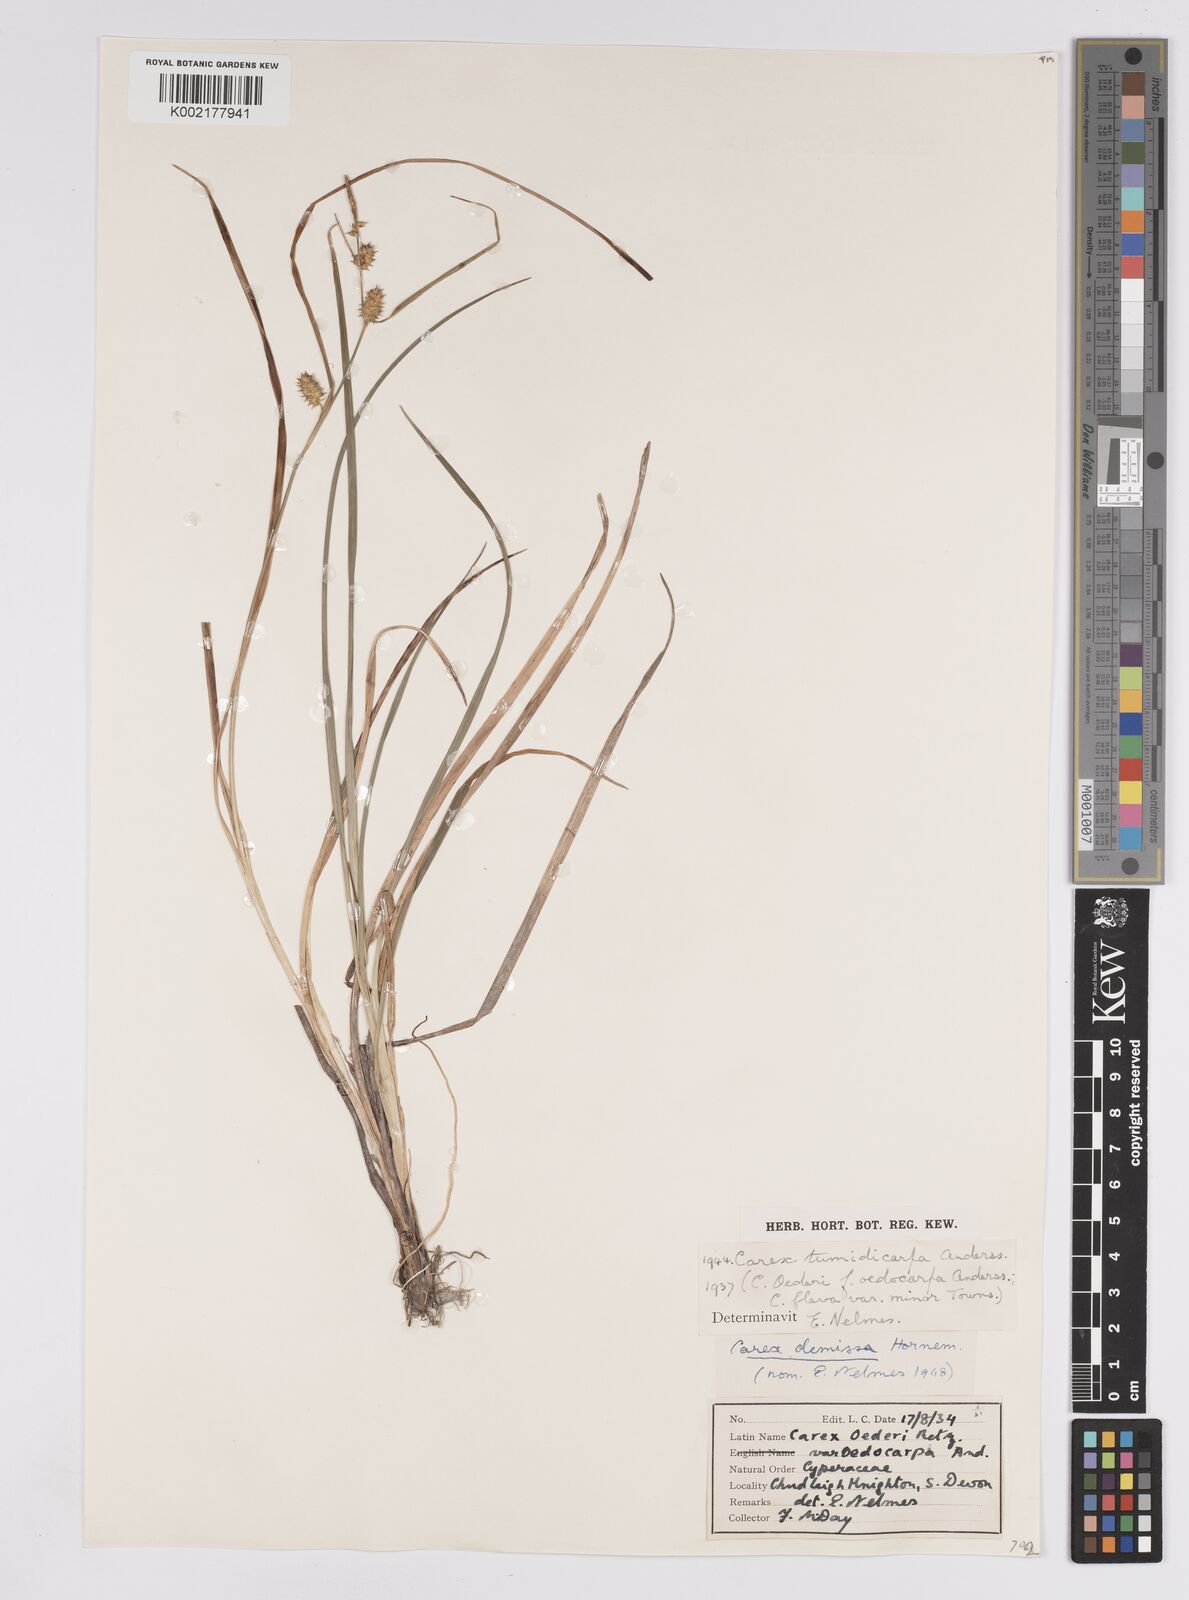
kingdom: Plantae
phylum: Tracheophyta
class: Liliopsida
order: Poales
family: Cyperaceae
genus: Carex
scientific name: Carex demissa
